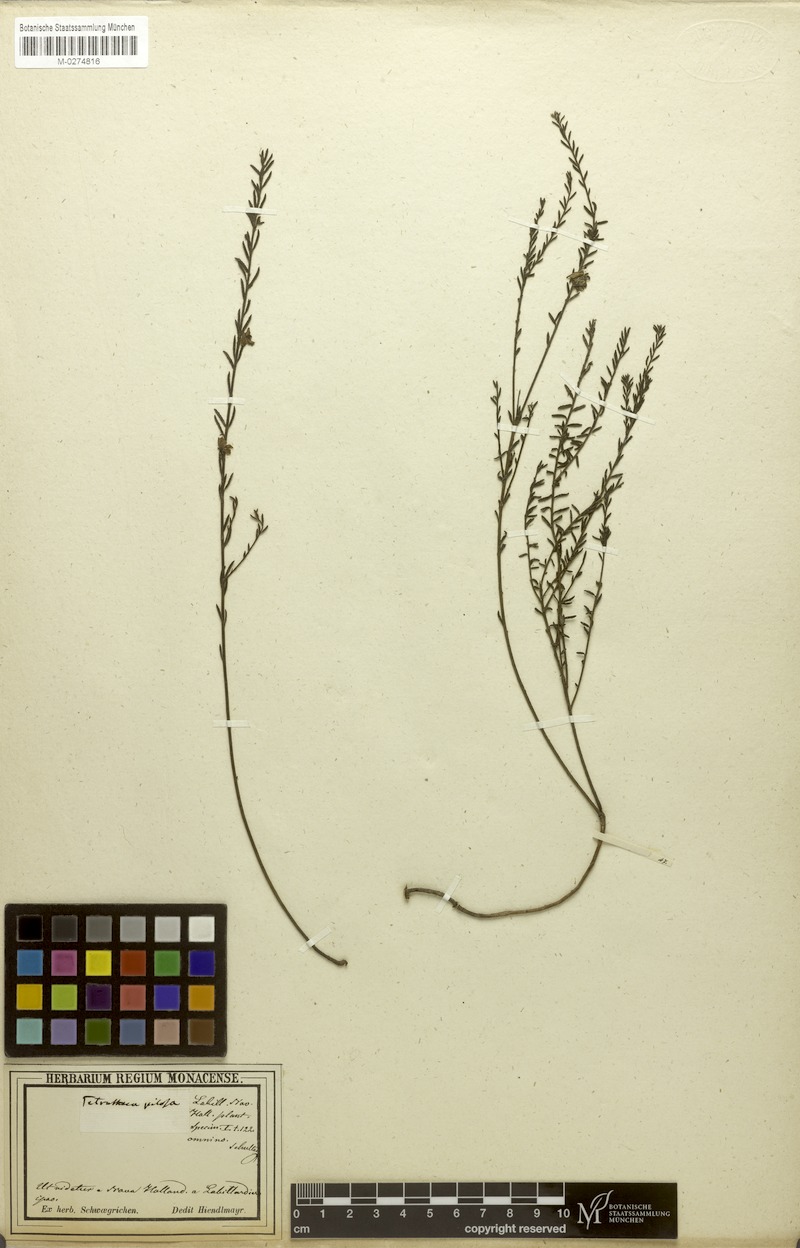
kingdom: Plantae
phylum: Tracheophyta
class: Magnoliopsida
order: Oxalidales
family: Elaeocarpaceae
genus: Tetratheca
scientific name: Tetratheca pilosa
